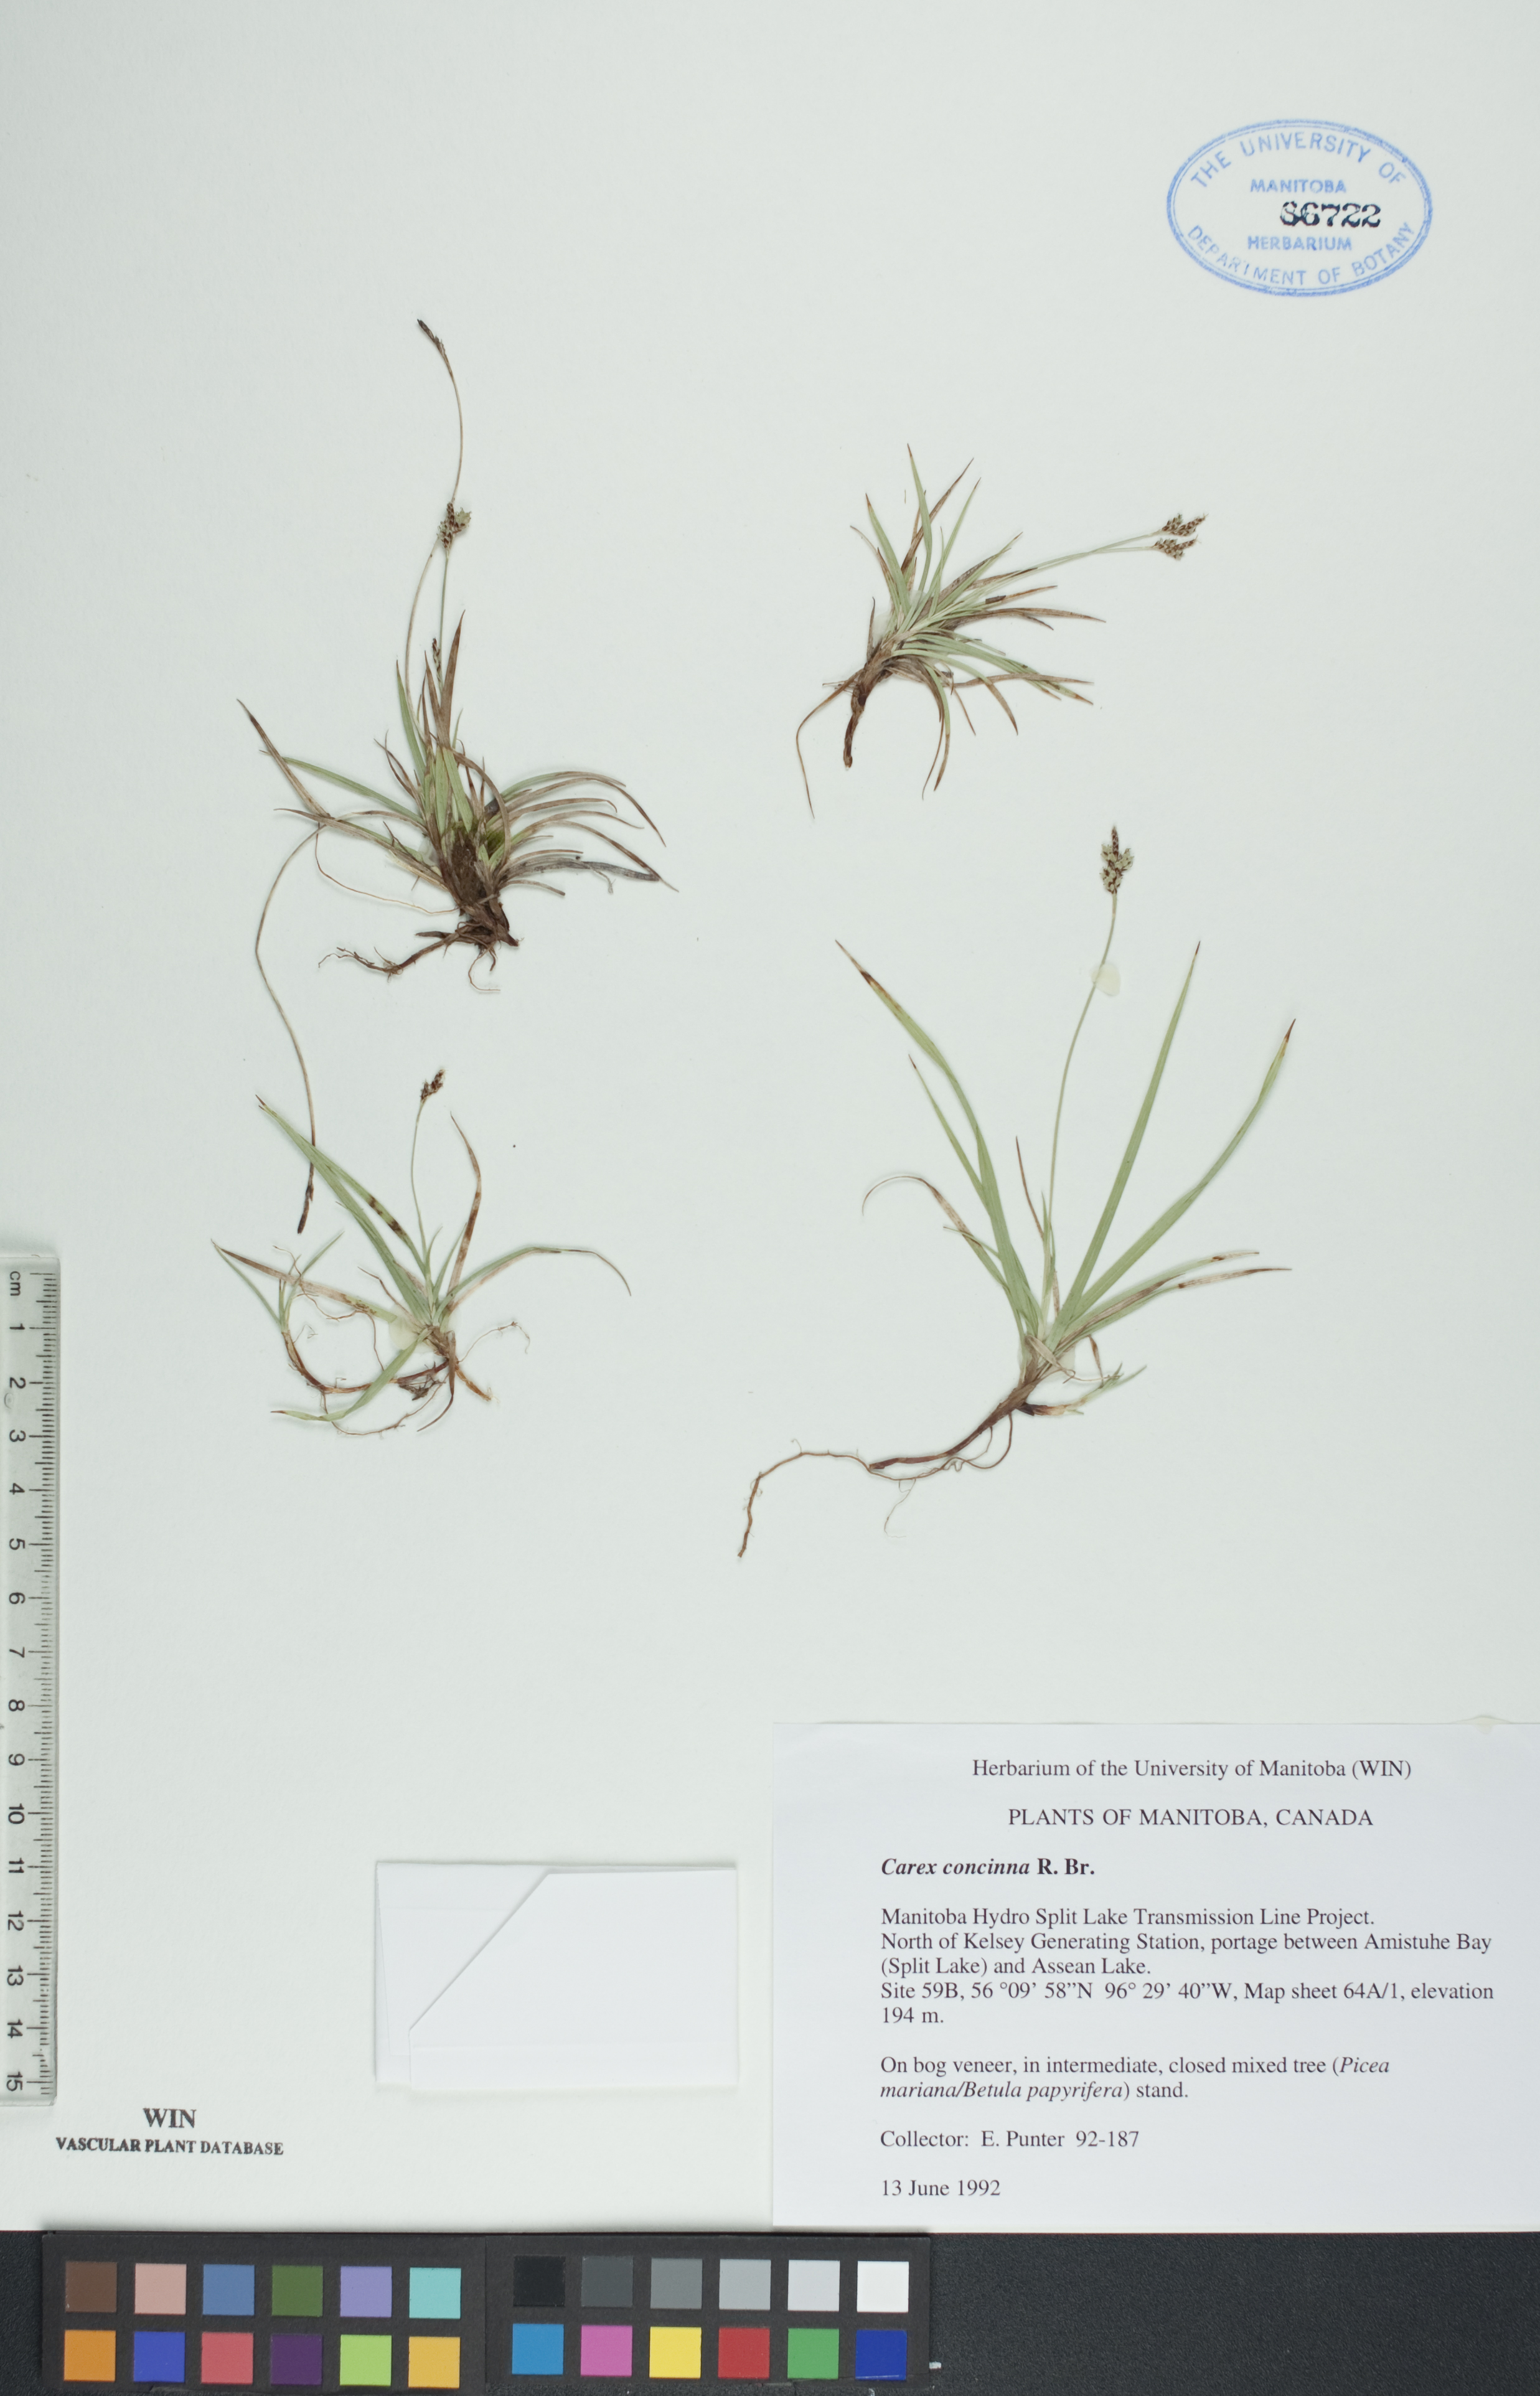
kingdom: Plantae
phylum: Tracheophyta
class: Liliopsida
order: Poales
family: Cyperaceae
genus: Carex
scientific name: Carex concinna
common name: Beautiful sedge
